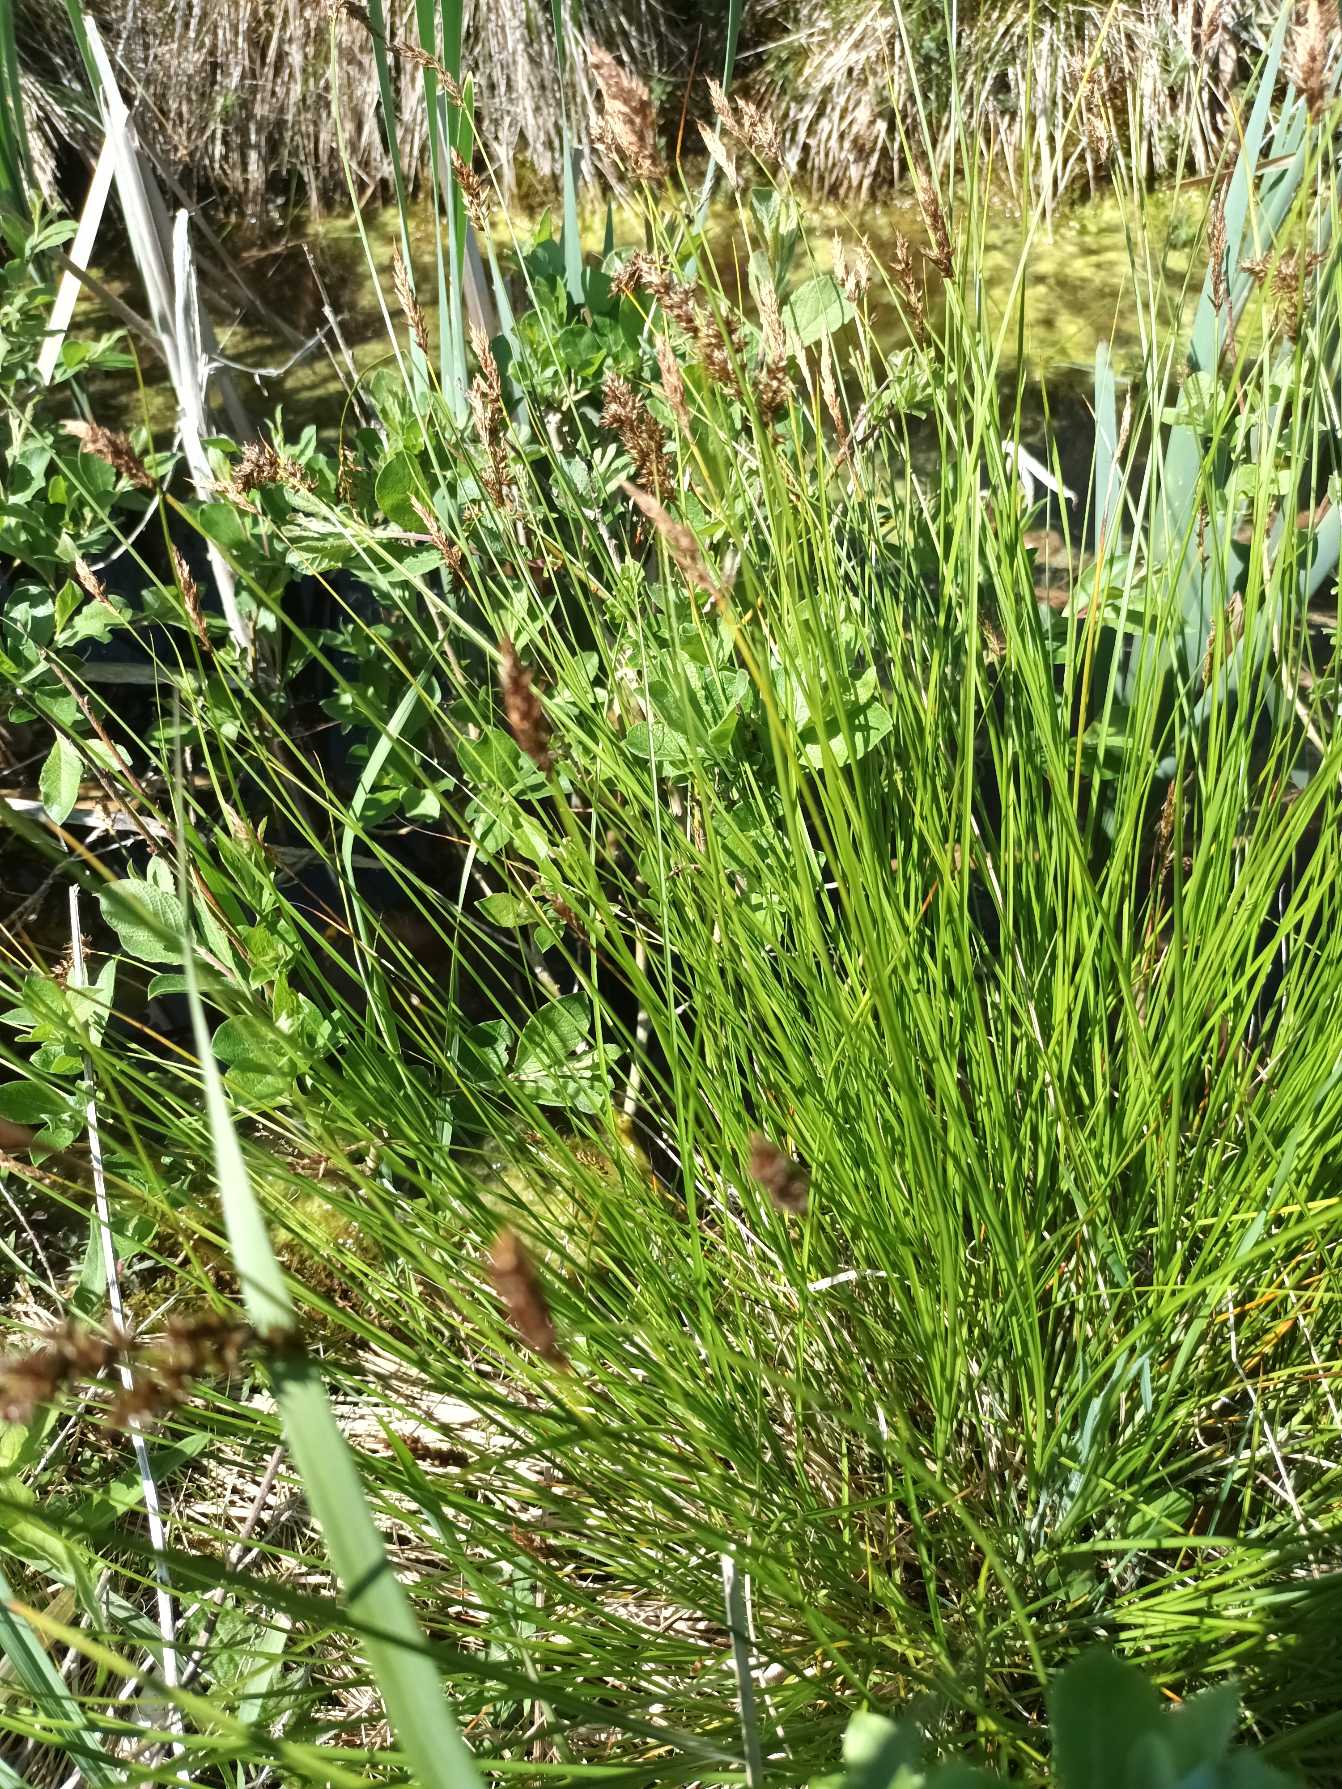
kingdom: Plantae
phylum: Tracheophyta
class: Liliopsida
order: Poales
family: Cyperaceae
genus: Carex
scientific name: Carex appropinquata
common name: Langakset star
